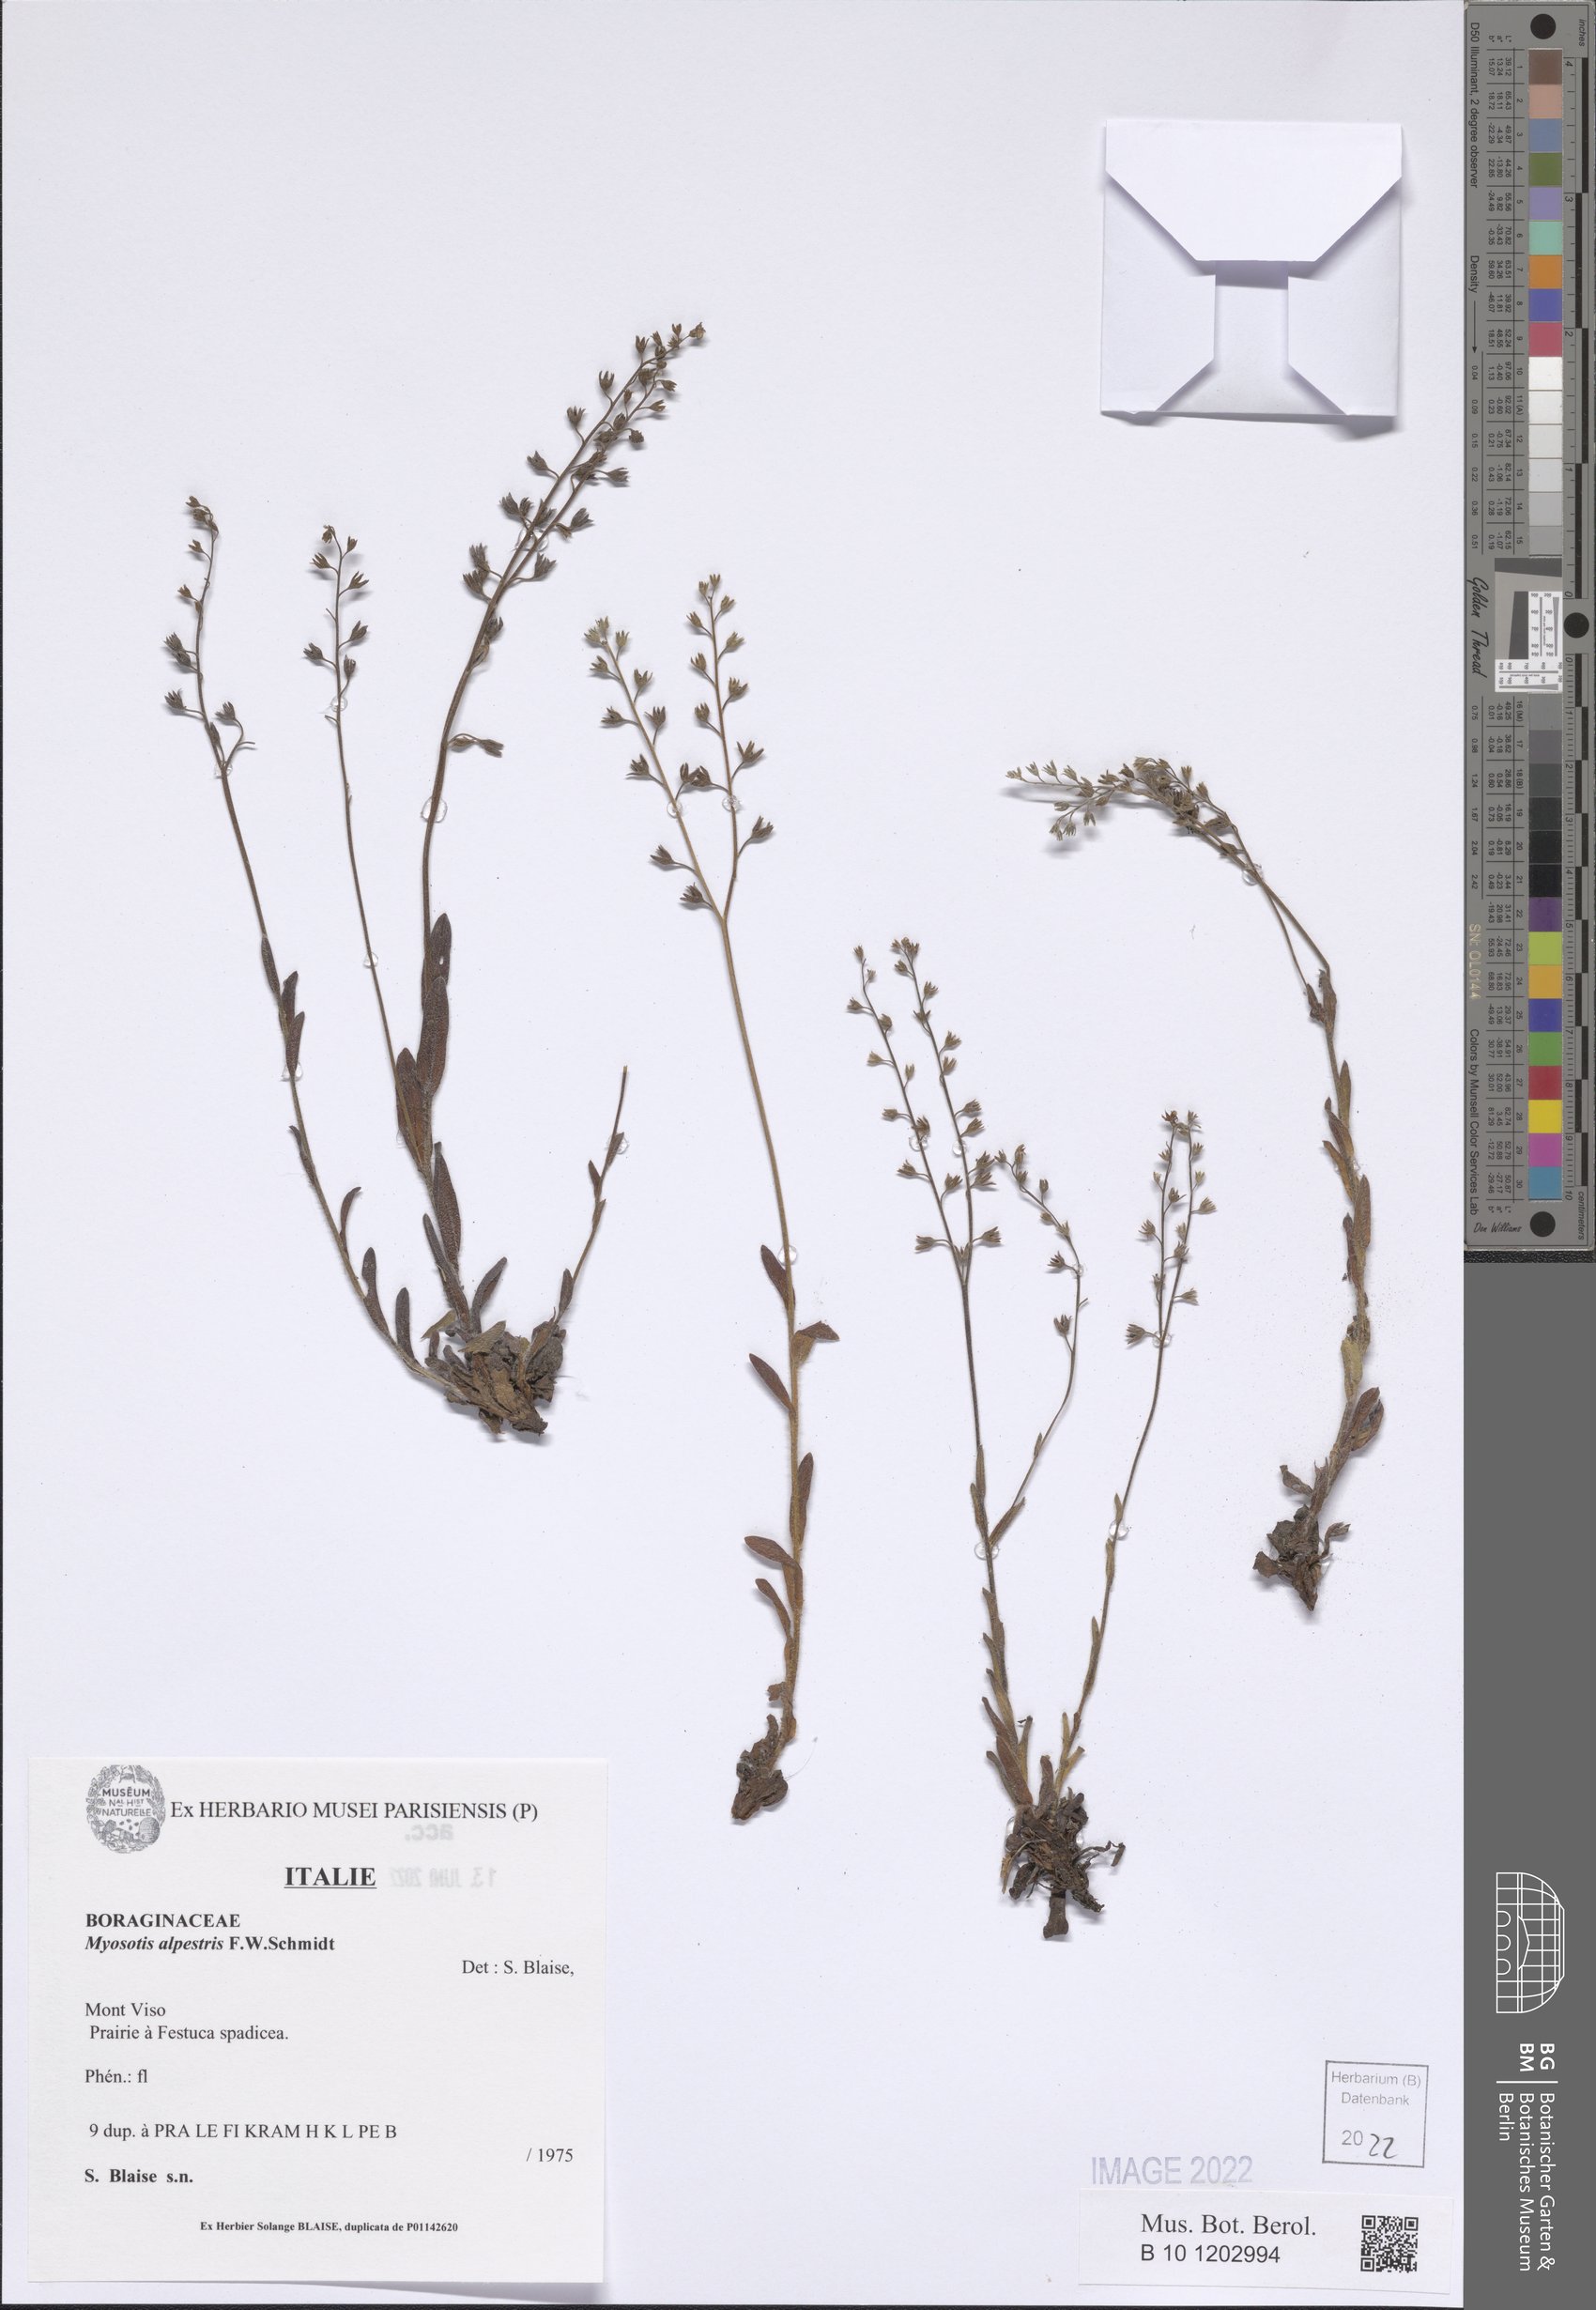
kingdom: Plantae
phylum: Tracheophyta
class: Magnoliopsida
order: Boraginales
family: Boraginaceae
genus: Myosotis
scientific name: Myosotis alpestris
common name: Alpine forget-me-not
